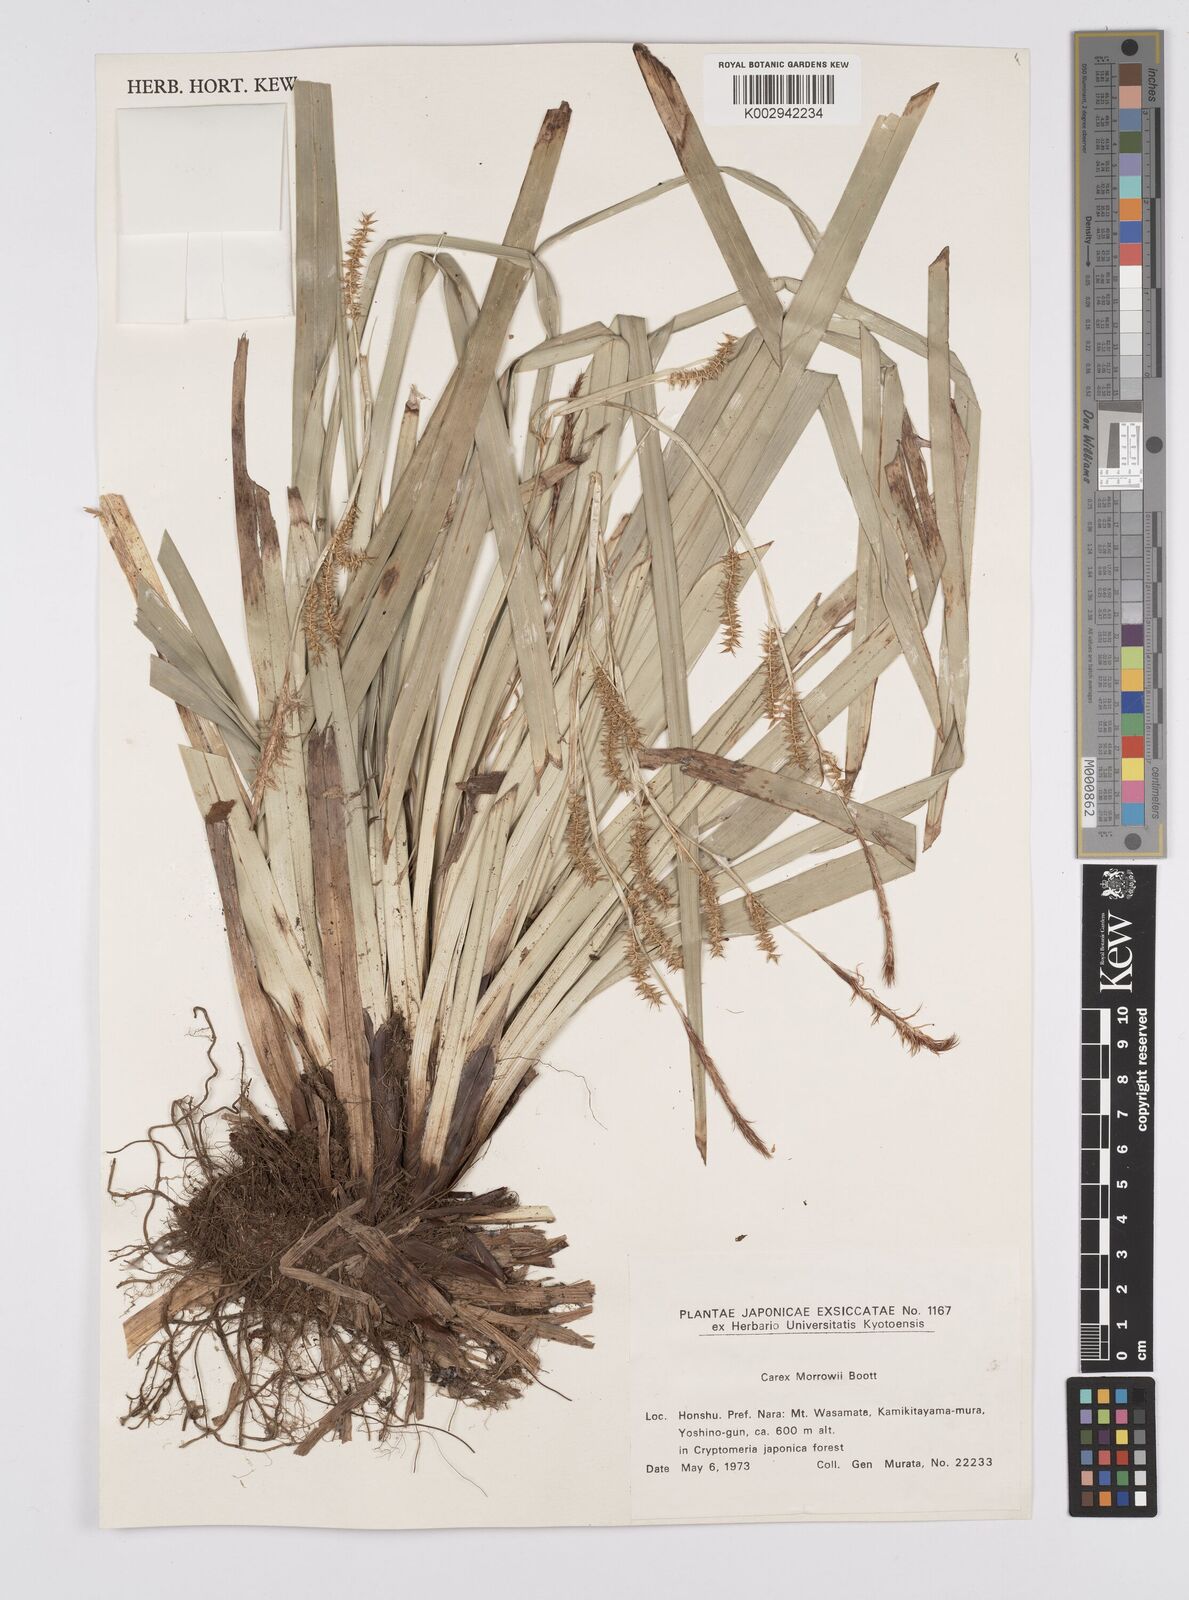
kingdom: Plantae
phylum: Tracheophyta
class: Liliopsida
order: Poales
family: Cyperaceae
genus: Carex
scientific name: Carex morrowii
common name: Japanese sedge
